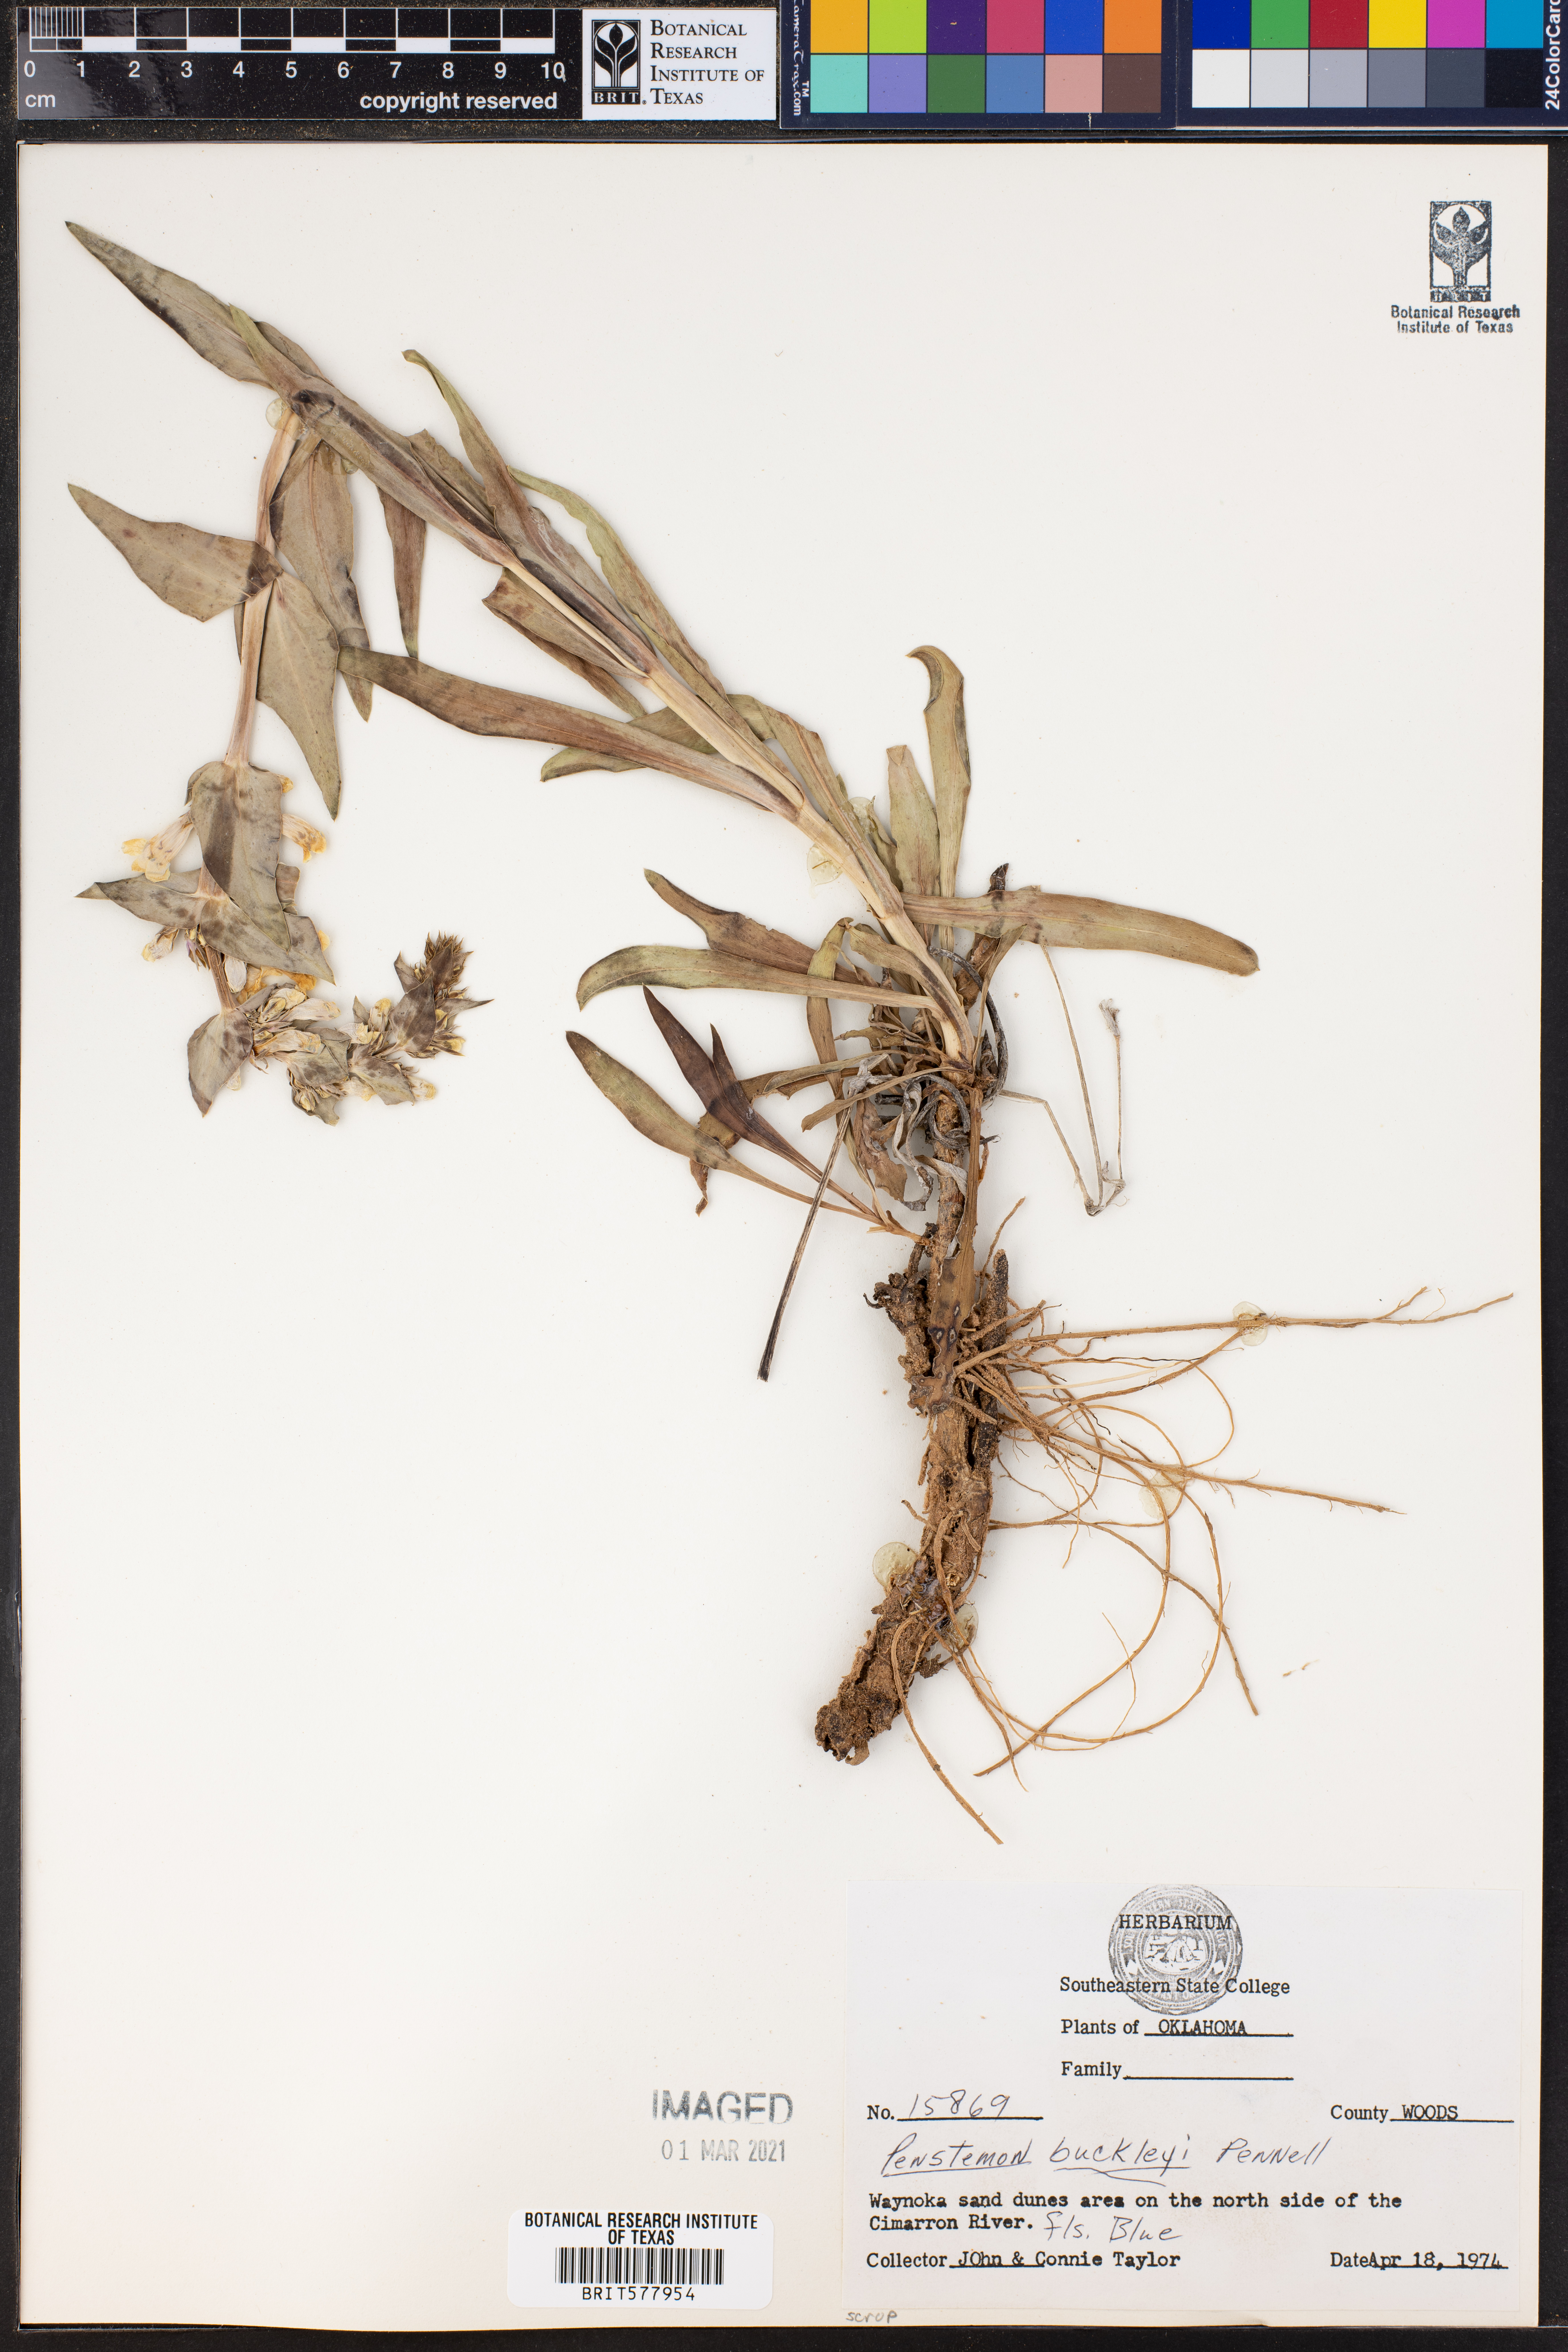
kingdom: Plantae
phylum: Tracheophyta
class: Magnoliopsida
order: Lamiales
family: Plantaginaceae
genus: Penstemon
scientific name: Penstemon buckleyi
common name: Buckley's penstemon
